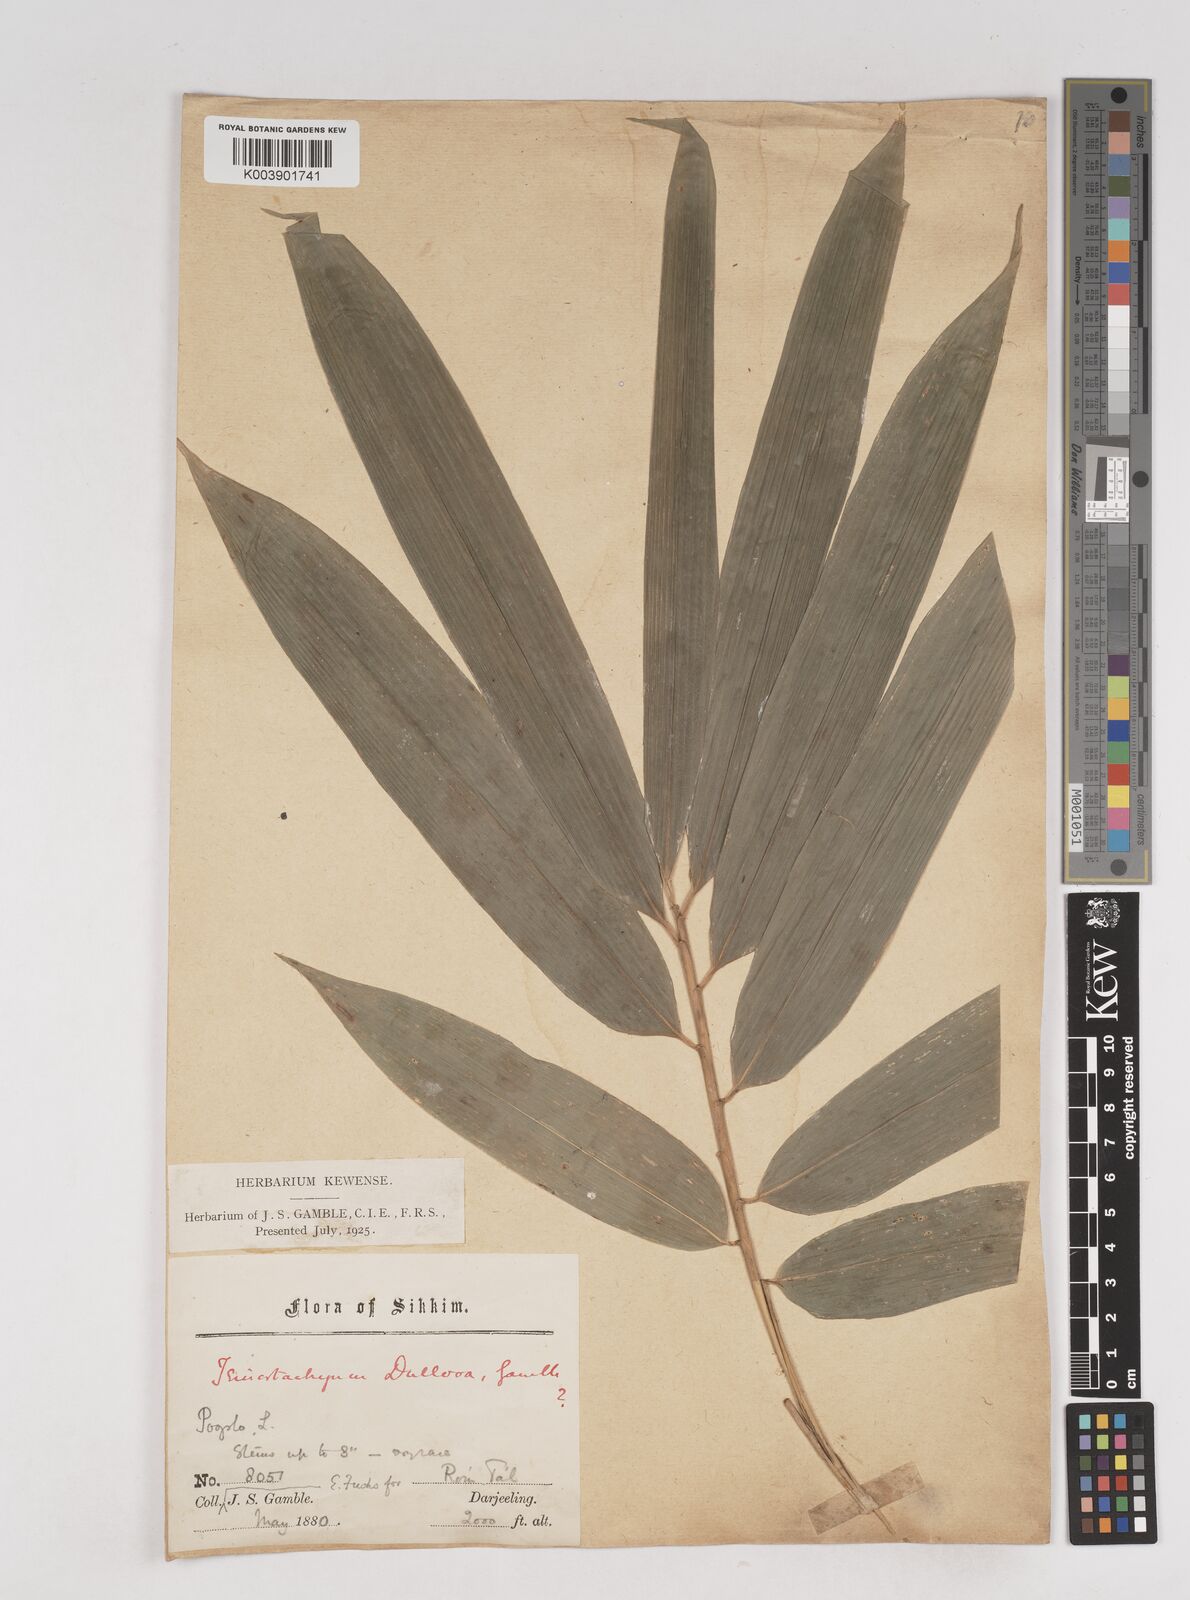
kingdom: Plantae
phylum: Tracheophyta
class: Liliopsida
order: Poales
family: Poaceae
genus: Schizostachyum
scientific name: Schizostachyum dullooa
